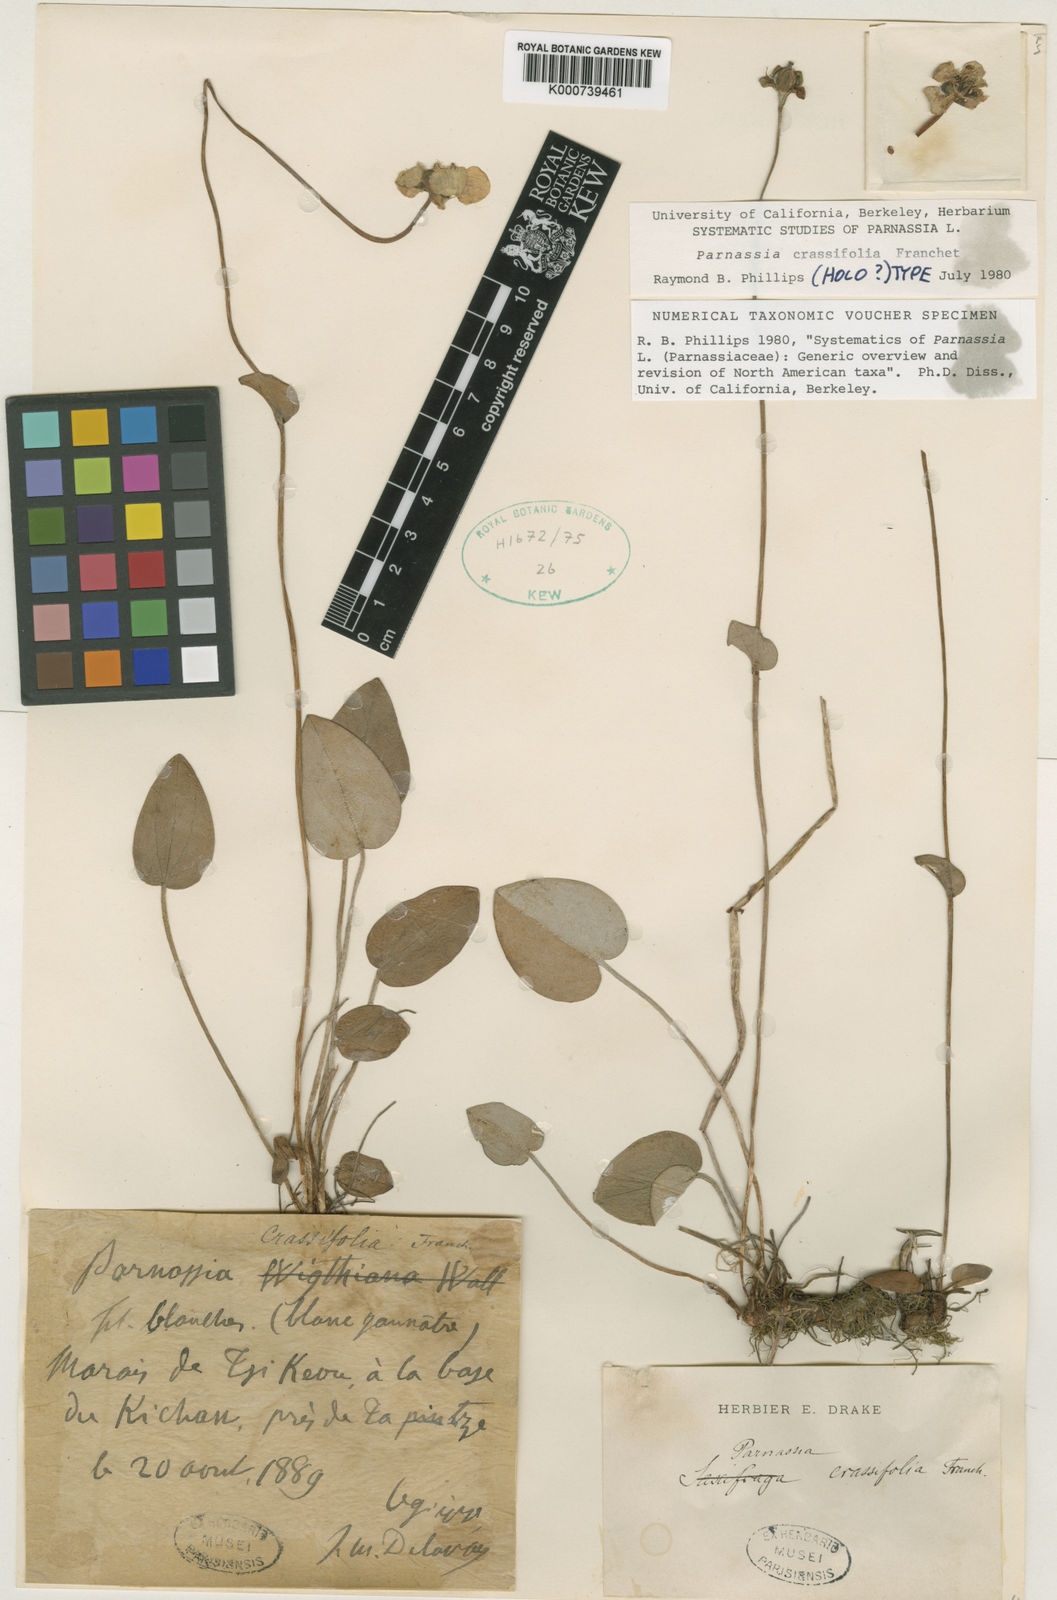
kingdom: Plantae
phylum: Tracheophyta
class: Magnoliopsida
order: Celastrales
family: Parnassiaceae
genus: Parnassia
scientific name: Parnassia crassifolia
